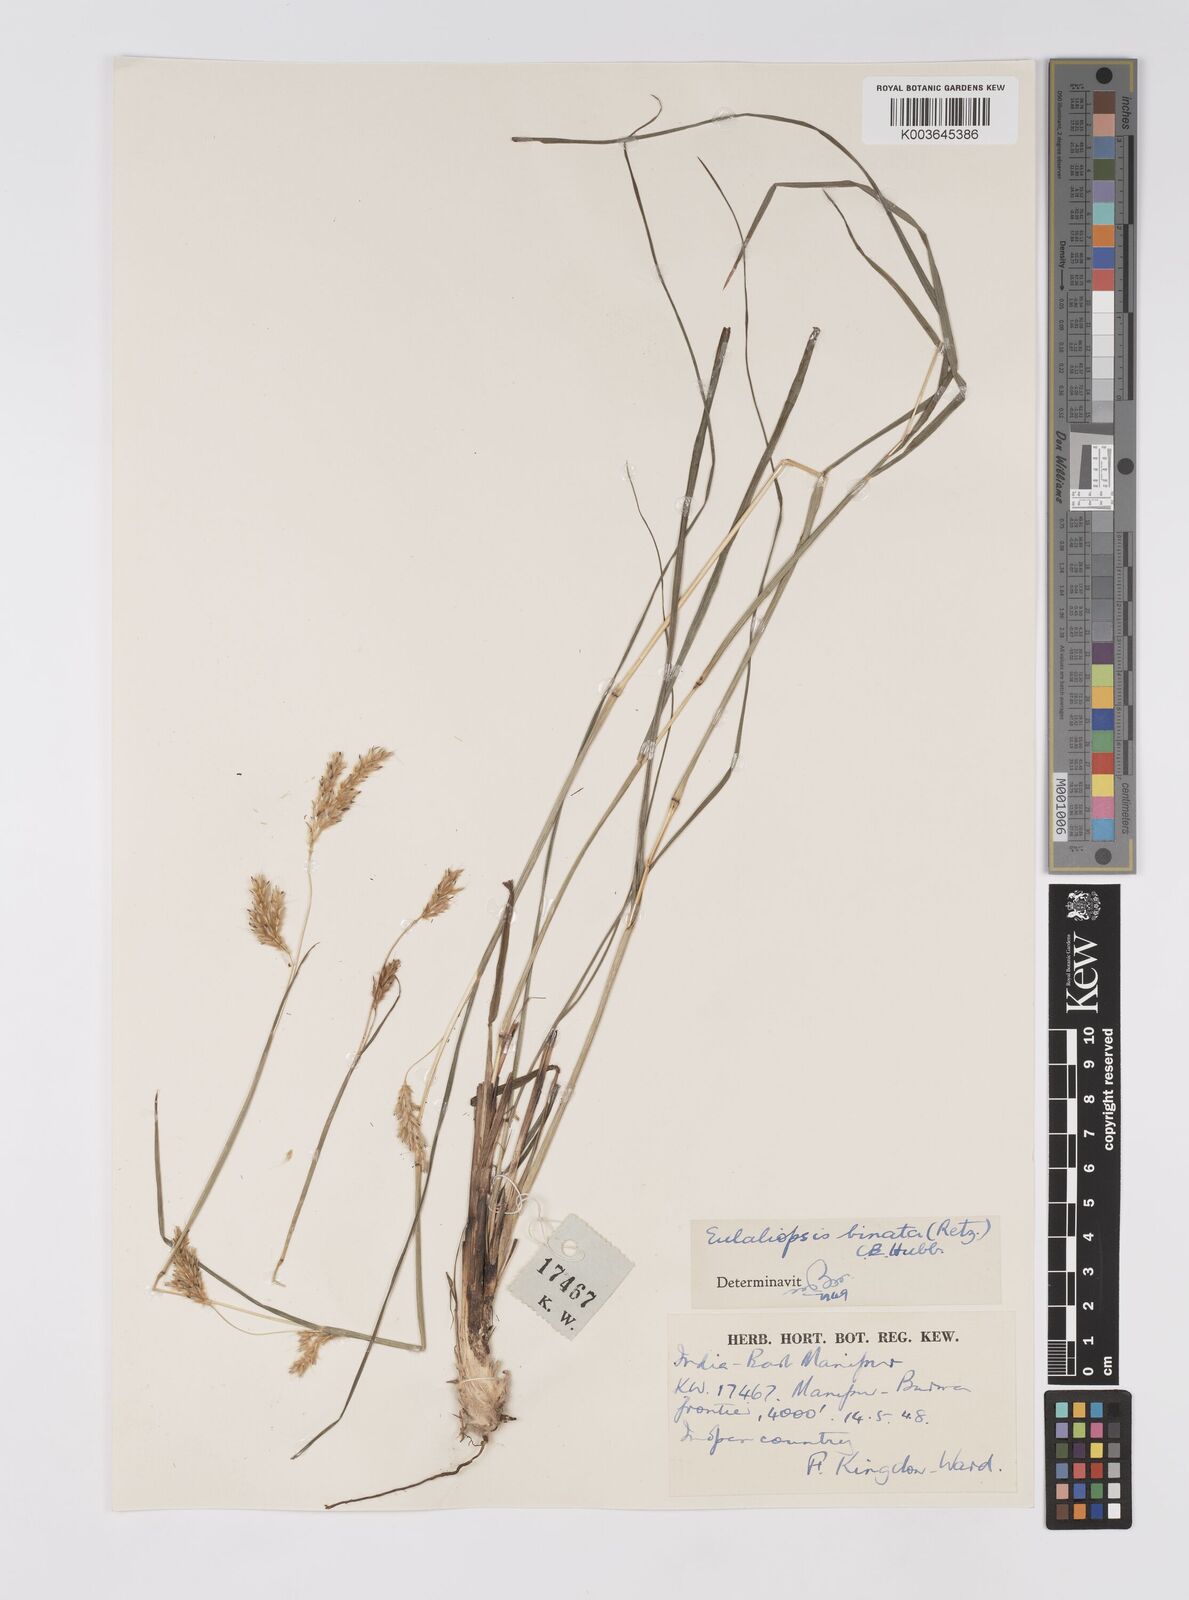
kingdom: Plantae
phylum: Tracheophyta
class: Liliopsida
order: Poales
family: Poaceae
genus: Eulaliopsis
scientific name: Eulaliopsis binata
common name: Baib grass
